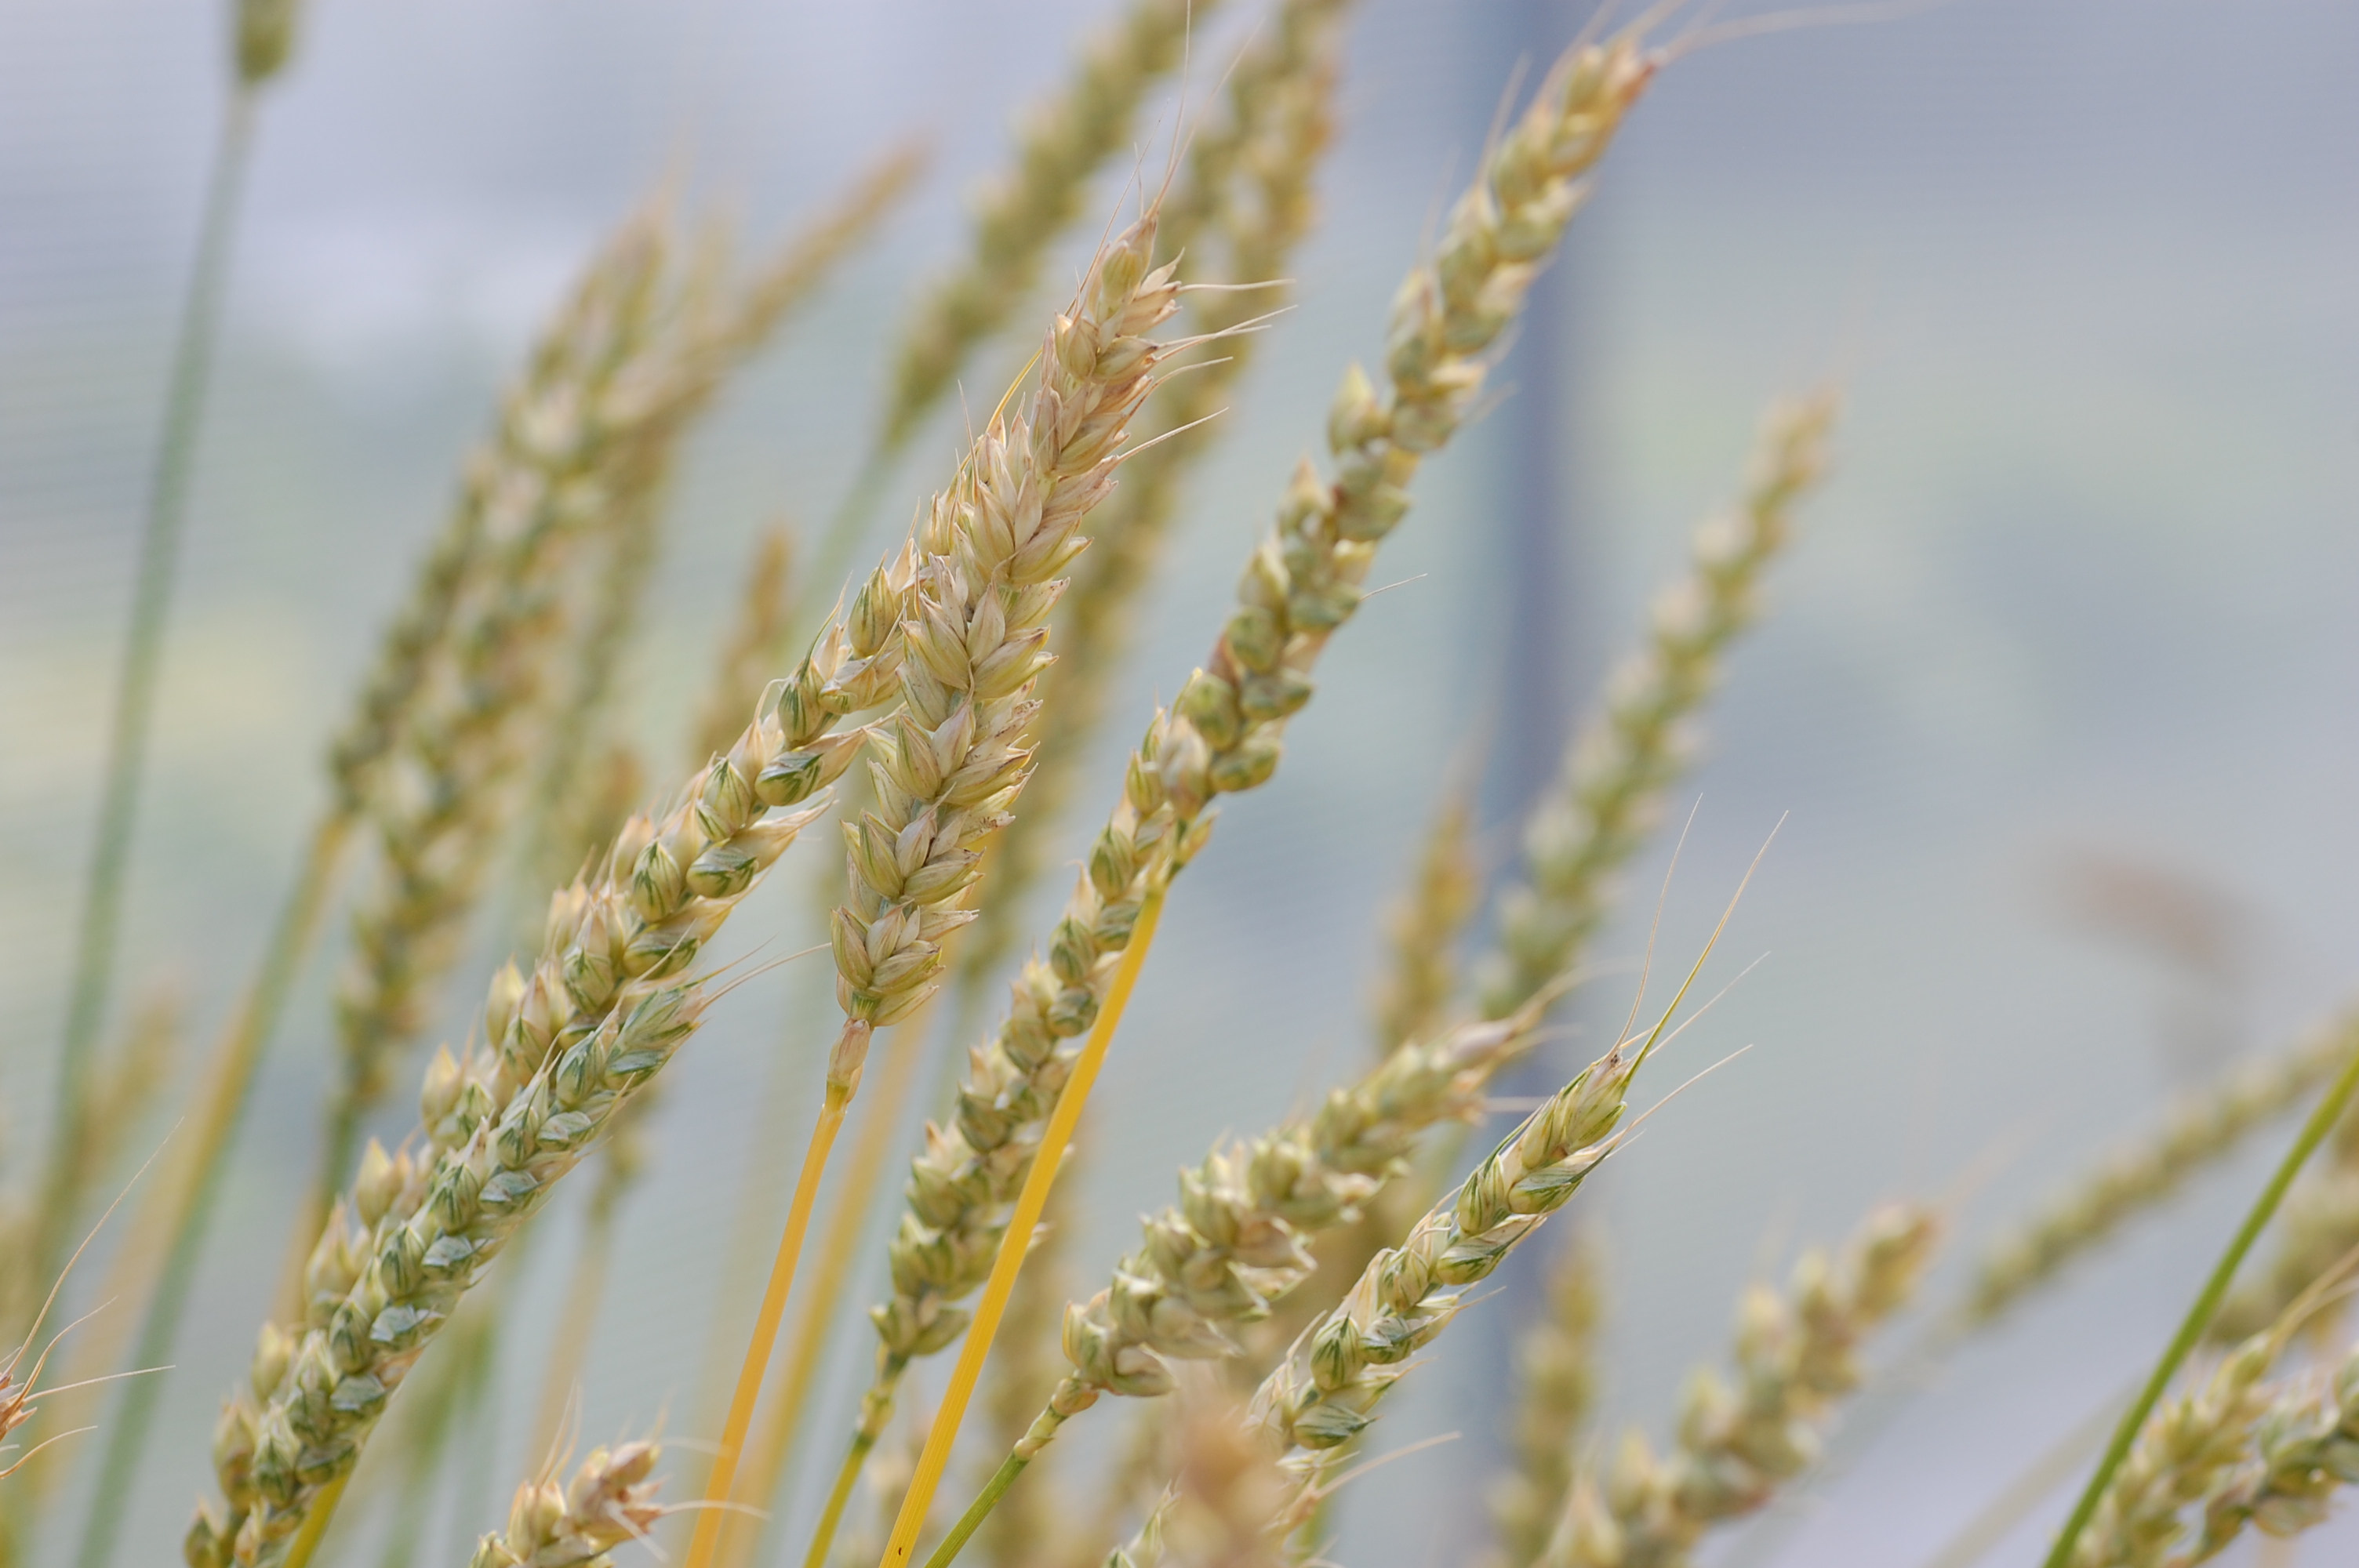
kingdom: Plantae
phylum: Tracheophyta
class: Liliopsida
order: Poales
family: Poaceae
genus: Triticum
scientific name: Triticum aestivum
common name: Common wheat
